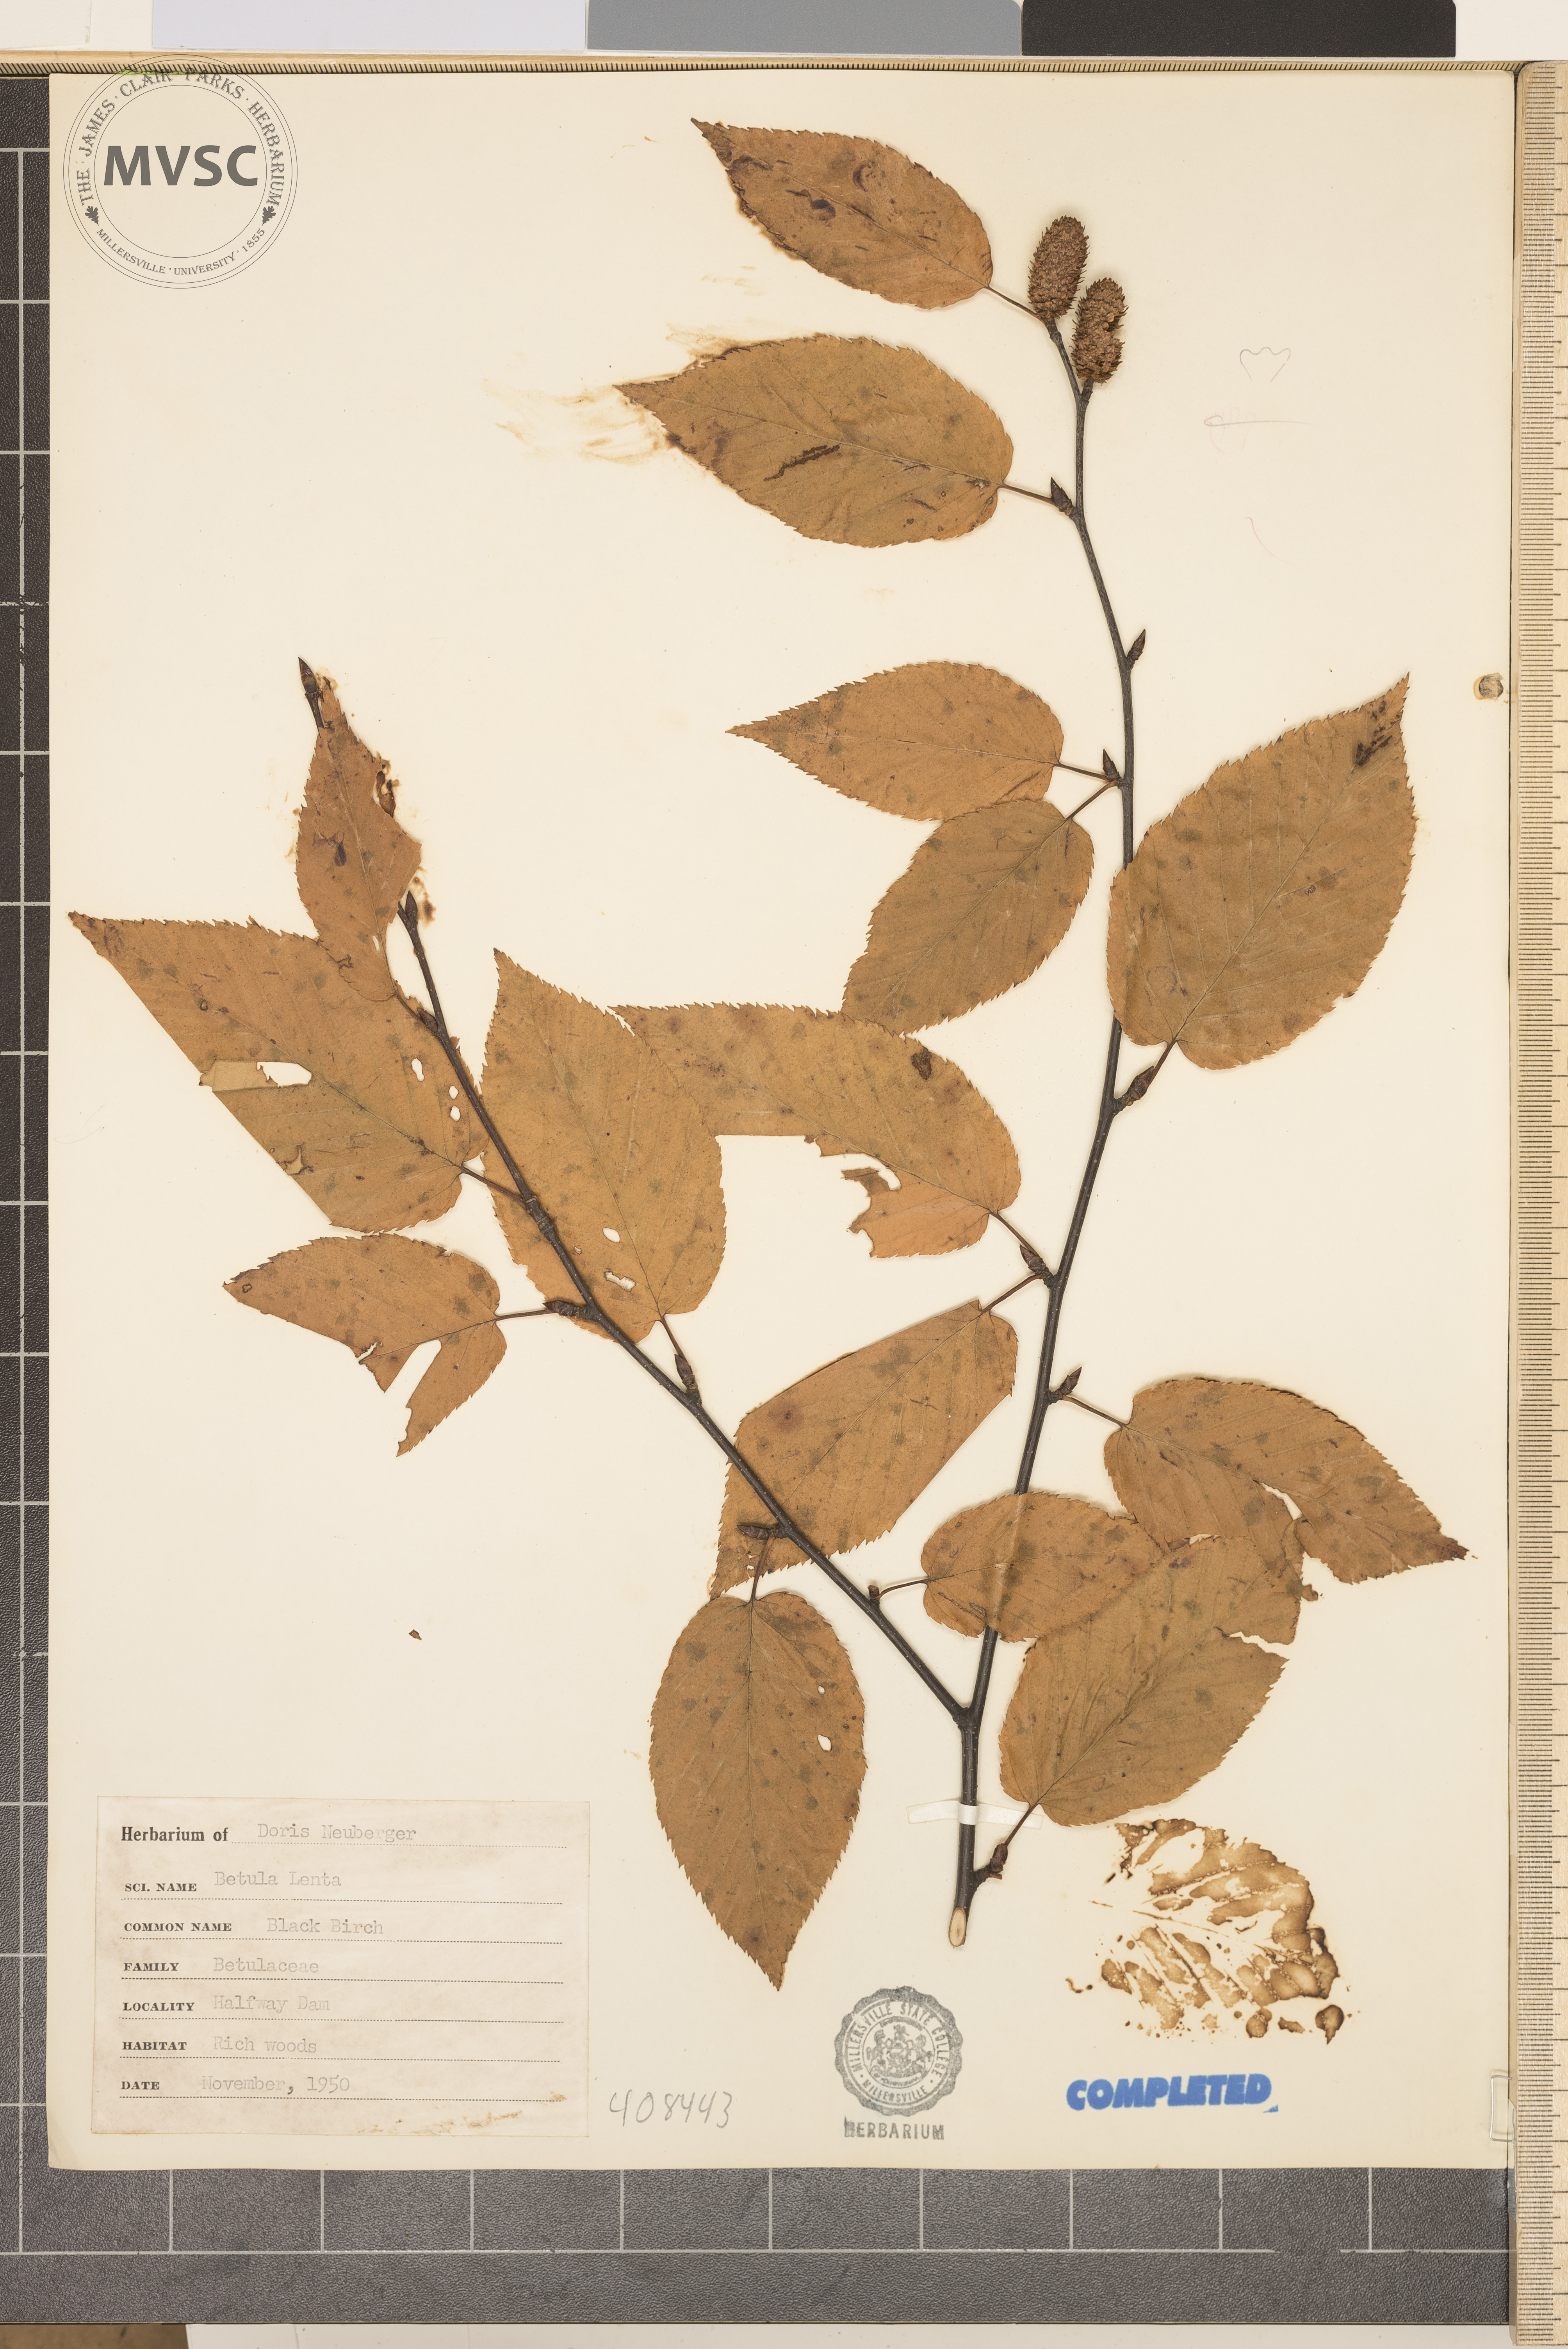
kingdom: Plantae
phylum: Tracheophyta
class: Magnoliopsida
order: Fagales
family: Betulaceae
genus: Betula
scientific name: Betula lenta
